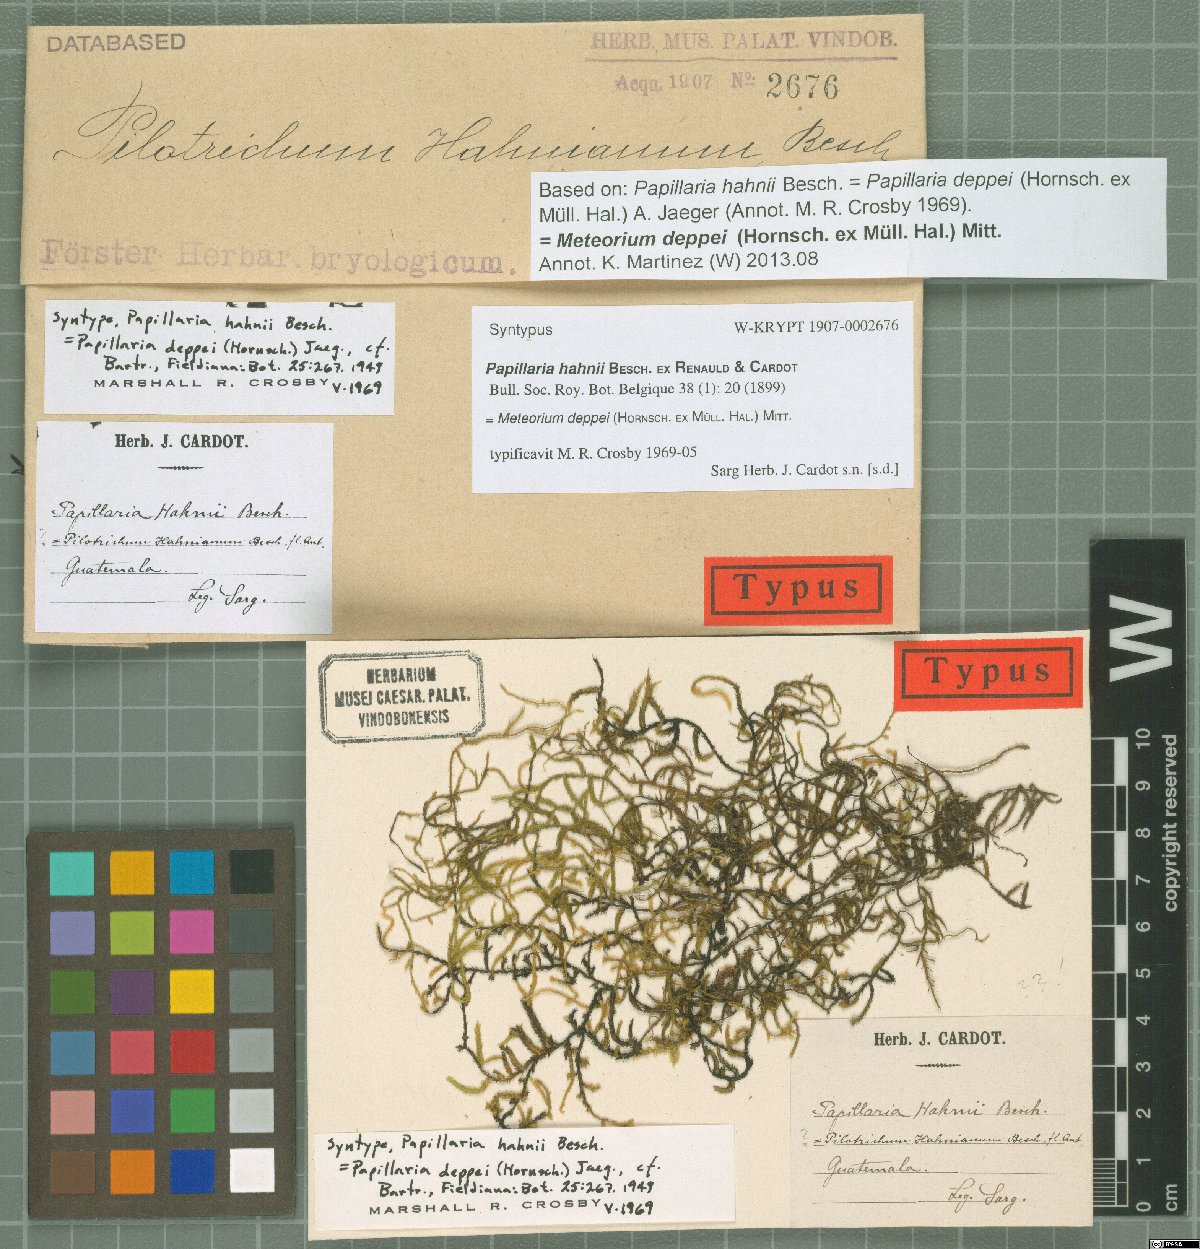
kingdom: Plantae
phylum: Bryophyta
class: Bryopsida
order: Hypnales
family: Meteoriaceae
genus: Meteorium
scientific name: Meteorium deppei
